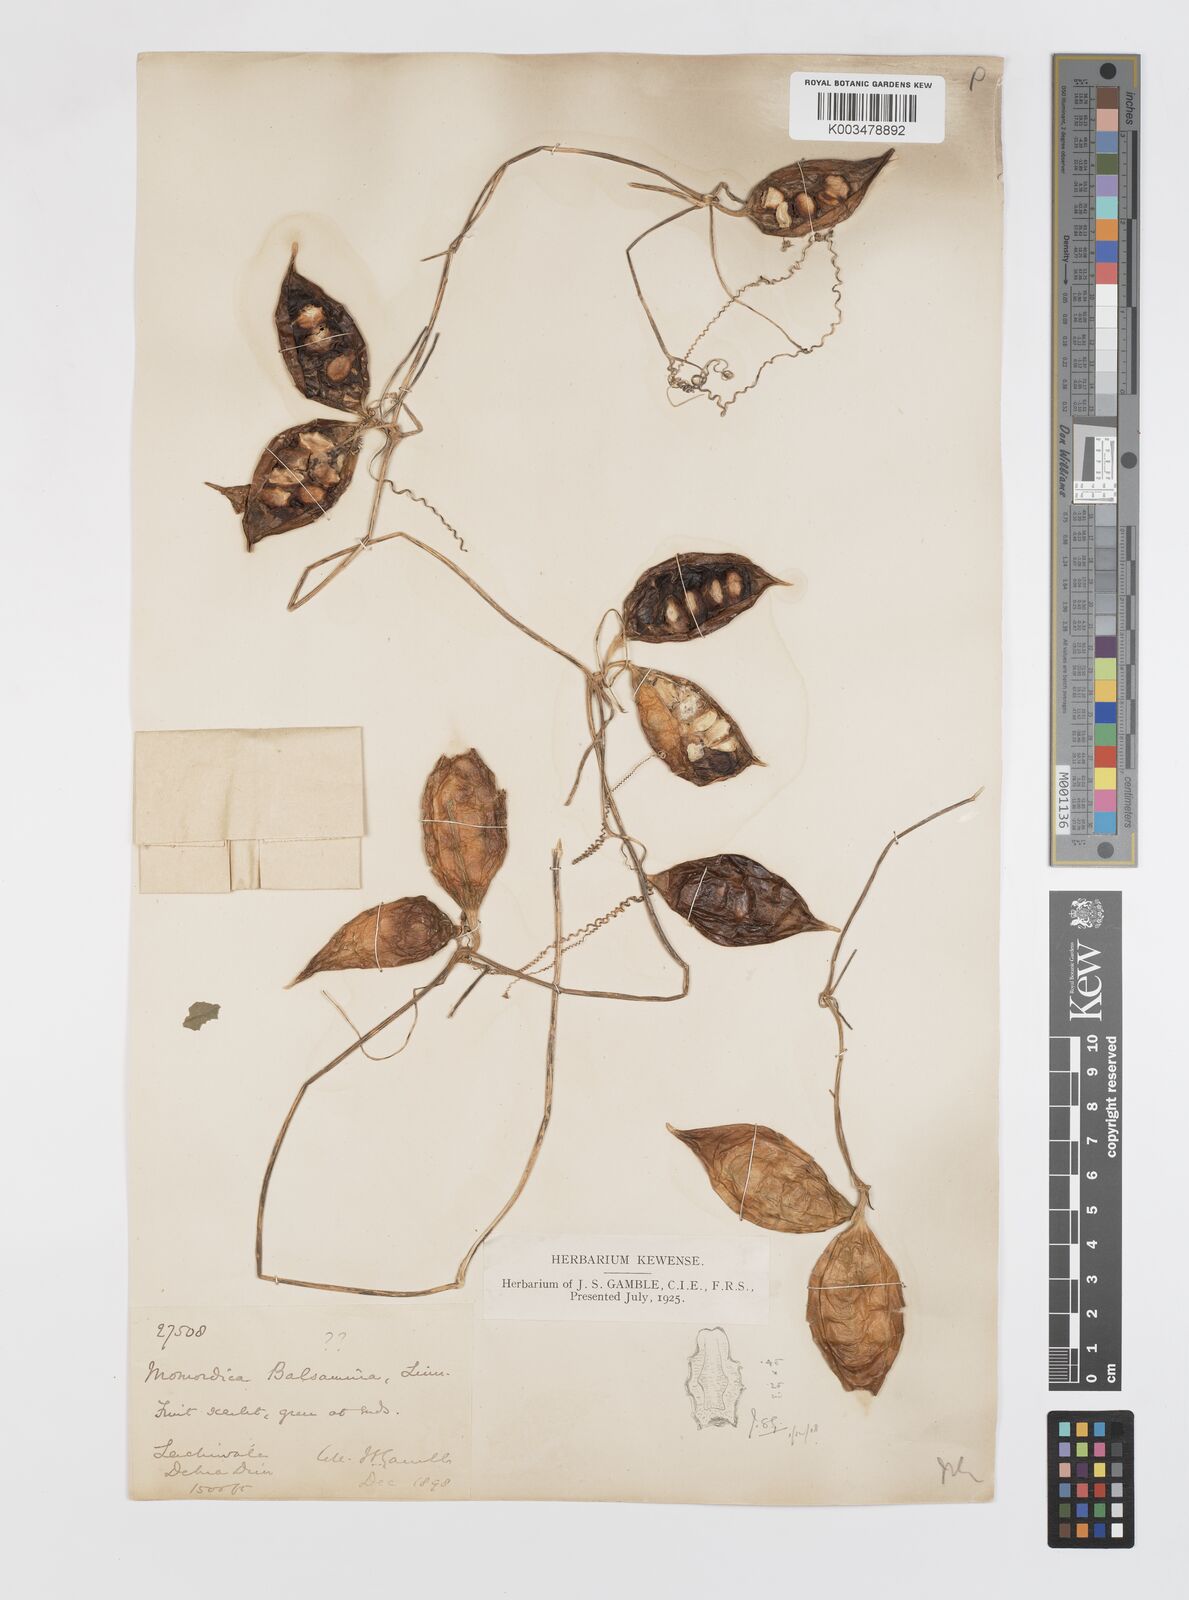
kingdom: Plantae
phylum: Tracheophyta
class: Magnoliopsida
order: Cucurbitales
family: Cucurbitaceae
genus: Trichosanthes
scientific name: Trichosanthes cucumerina
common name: Snakegourd
